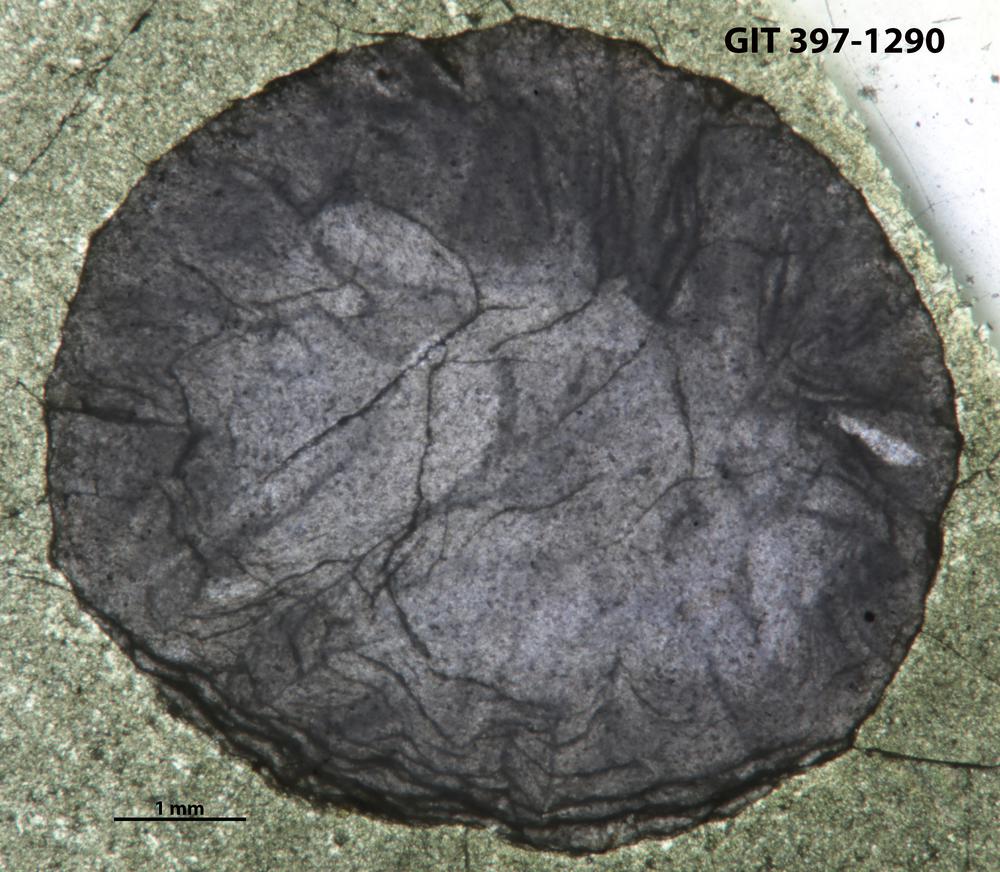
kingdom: Animalia
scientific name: Animalia
